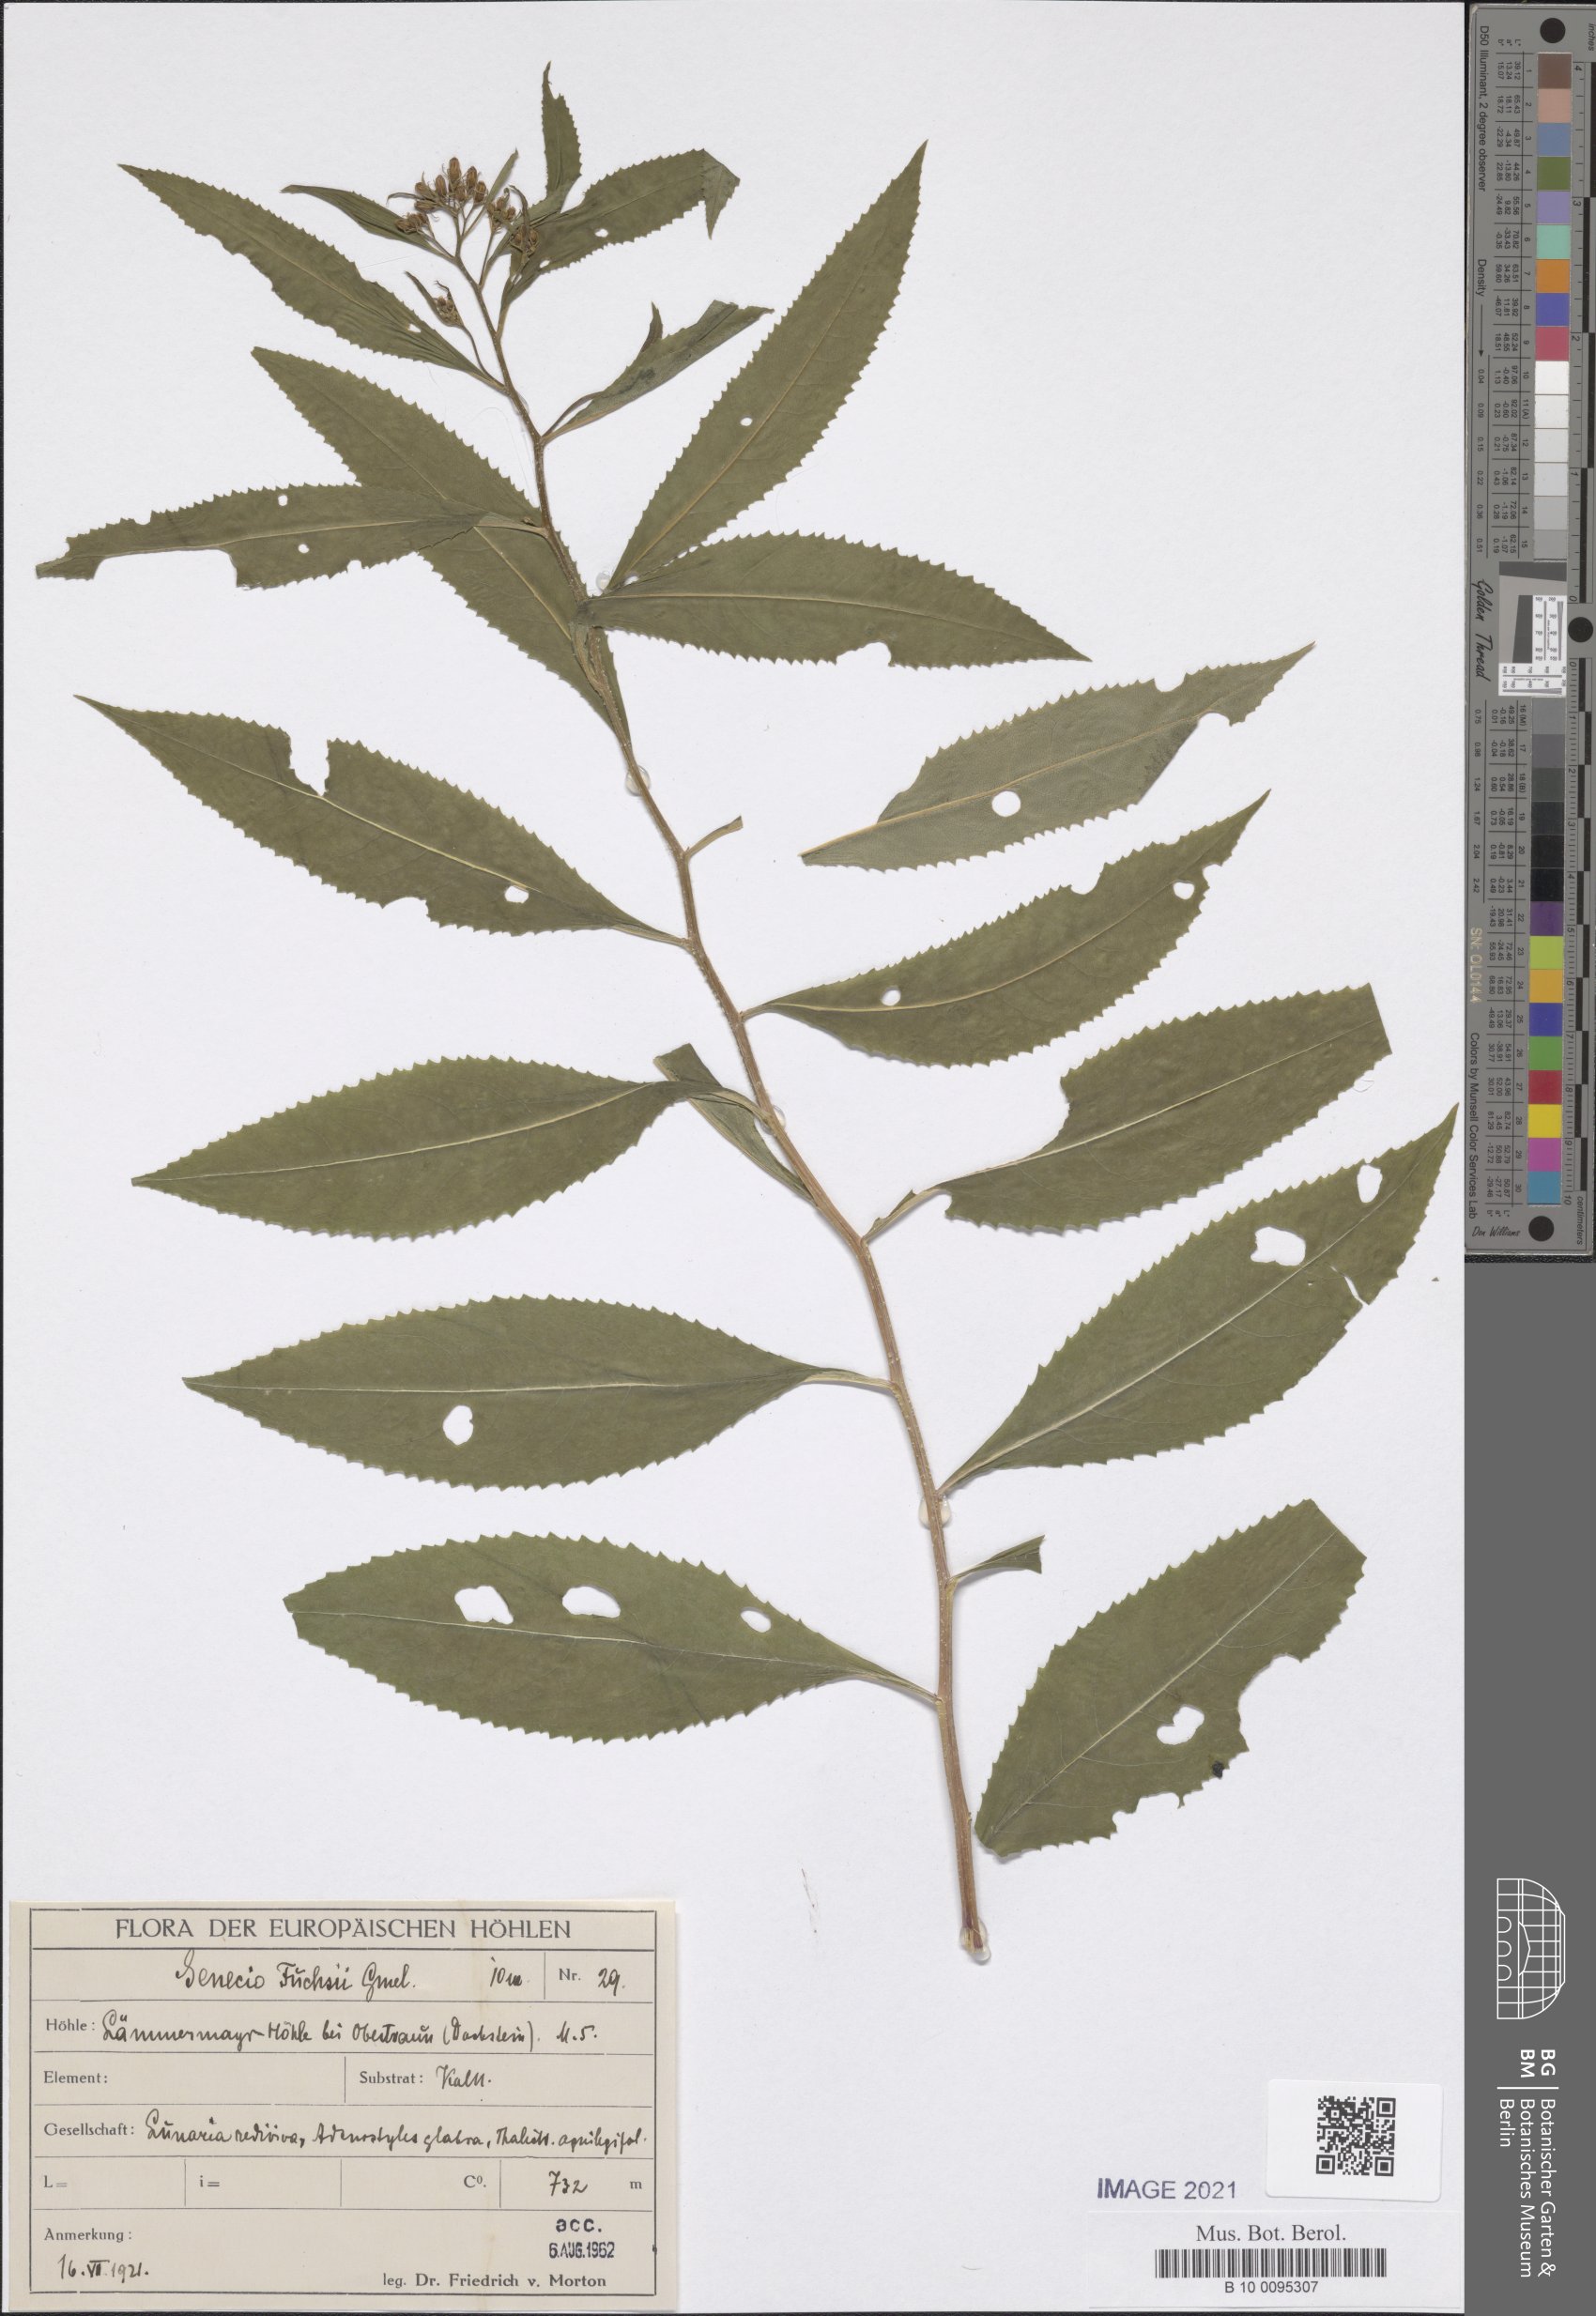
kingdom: Plantae
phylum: Tracheophyta
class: Magnoliopsida
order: Asterales
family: Asteraceae
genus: Senecio
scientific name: Senecio ovatus
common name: Wood ragwort
